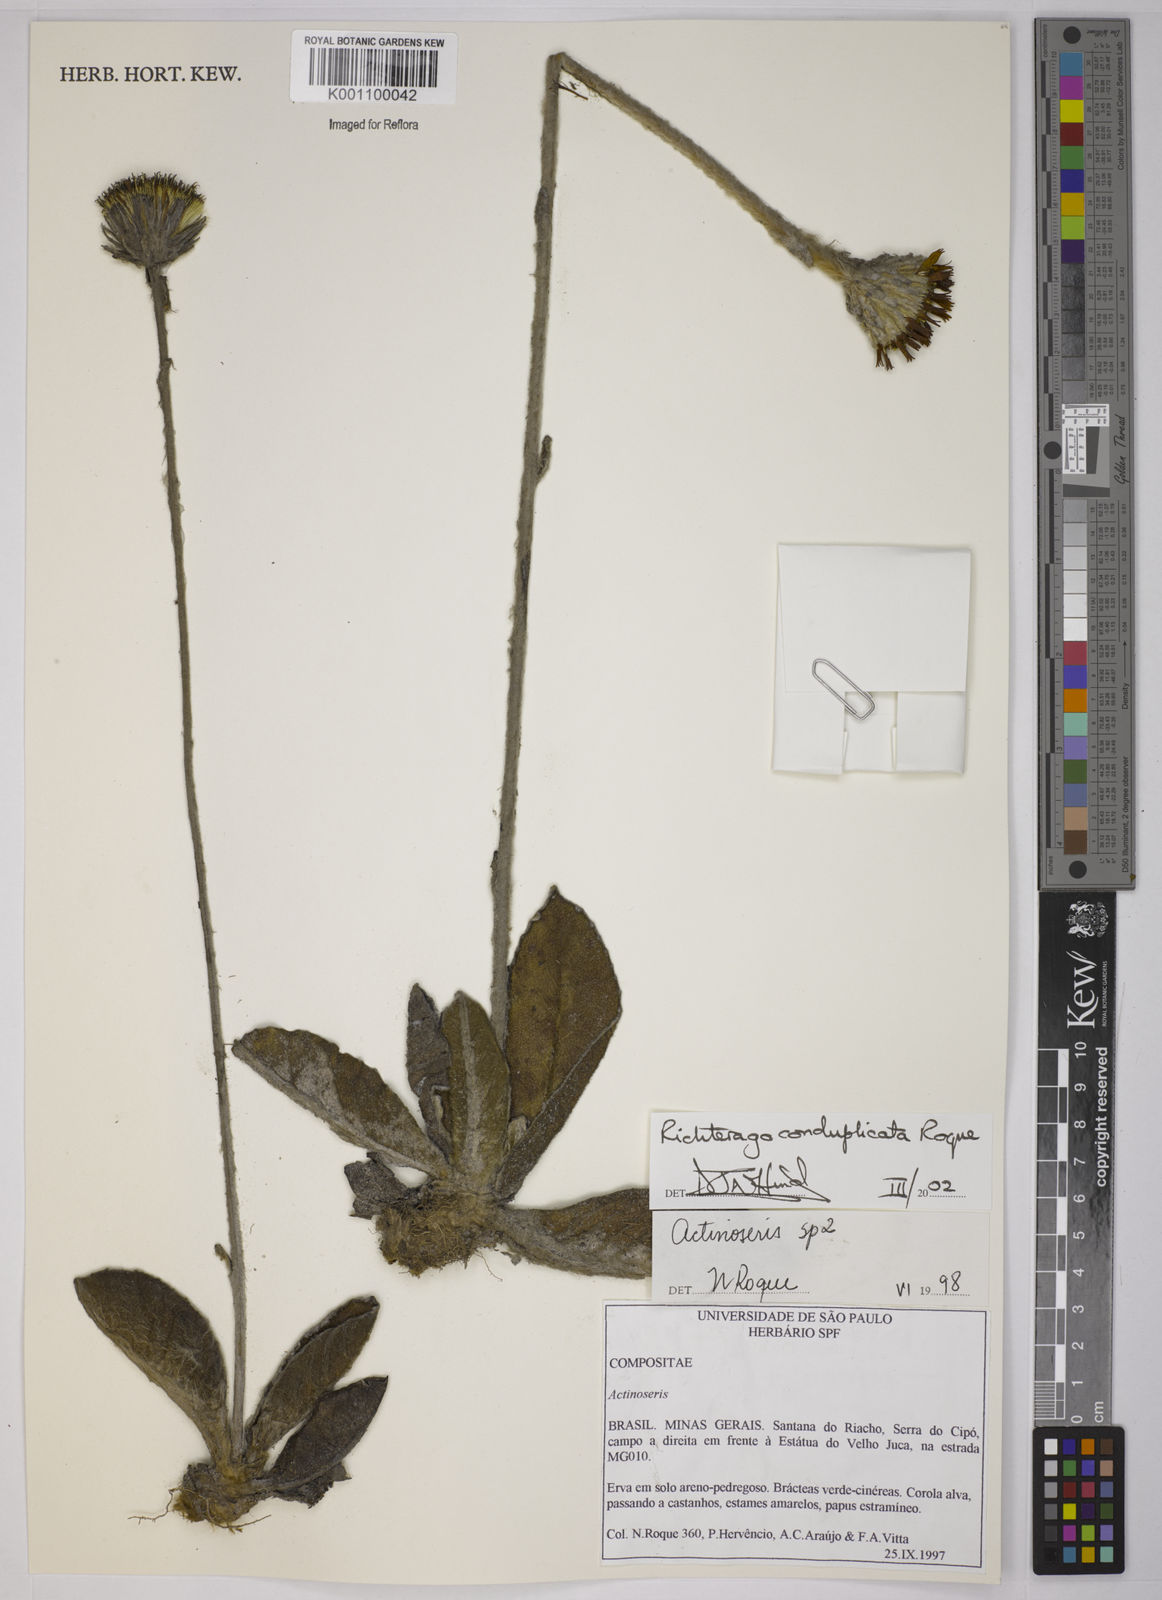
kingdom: Plantae
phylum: Tracheophyta
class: Magnoliopsida
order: Asterales
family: Asteraceae
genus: Richterago
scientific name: Richterago conduplicata
